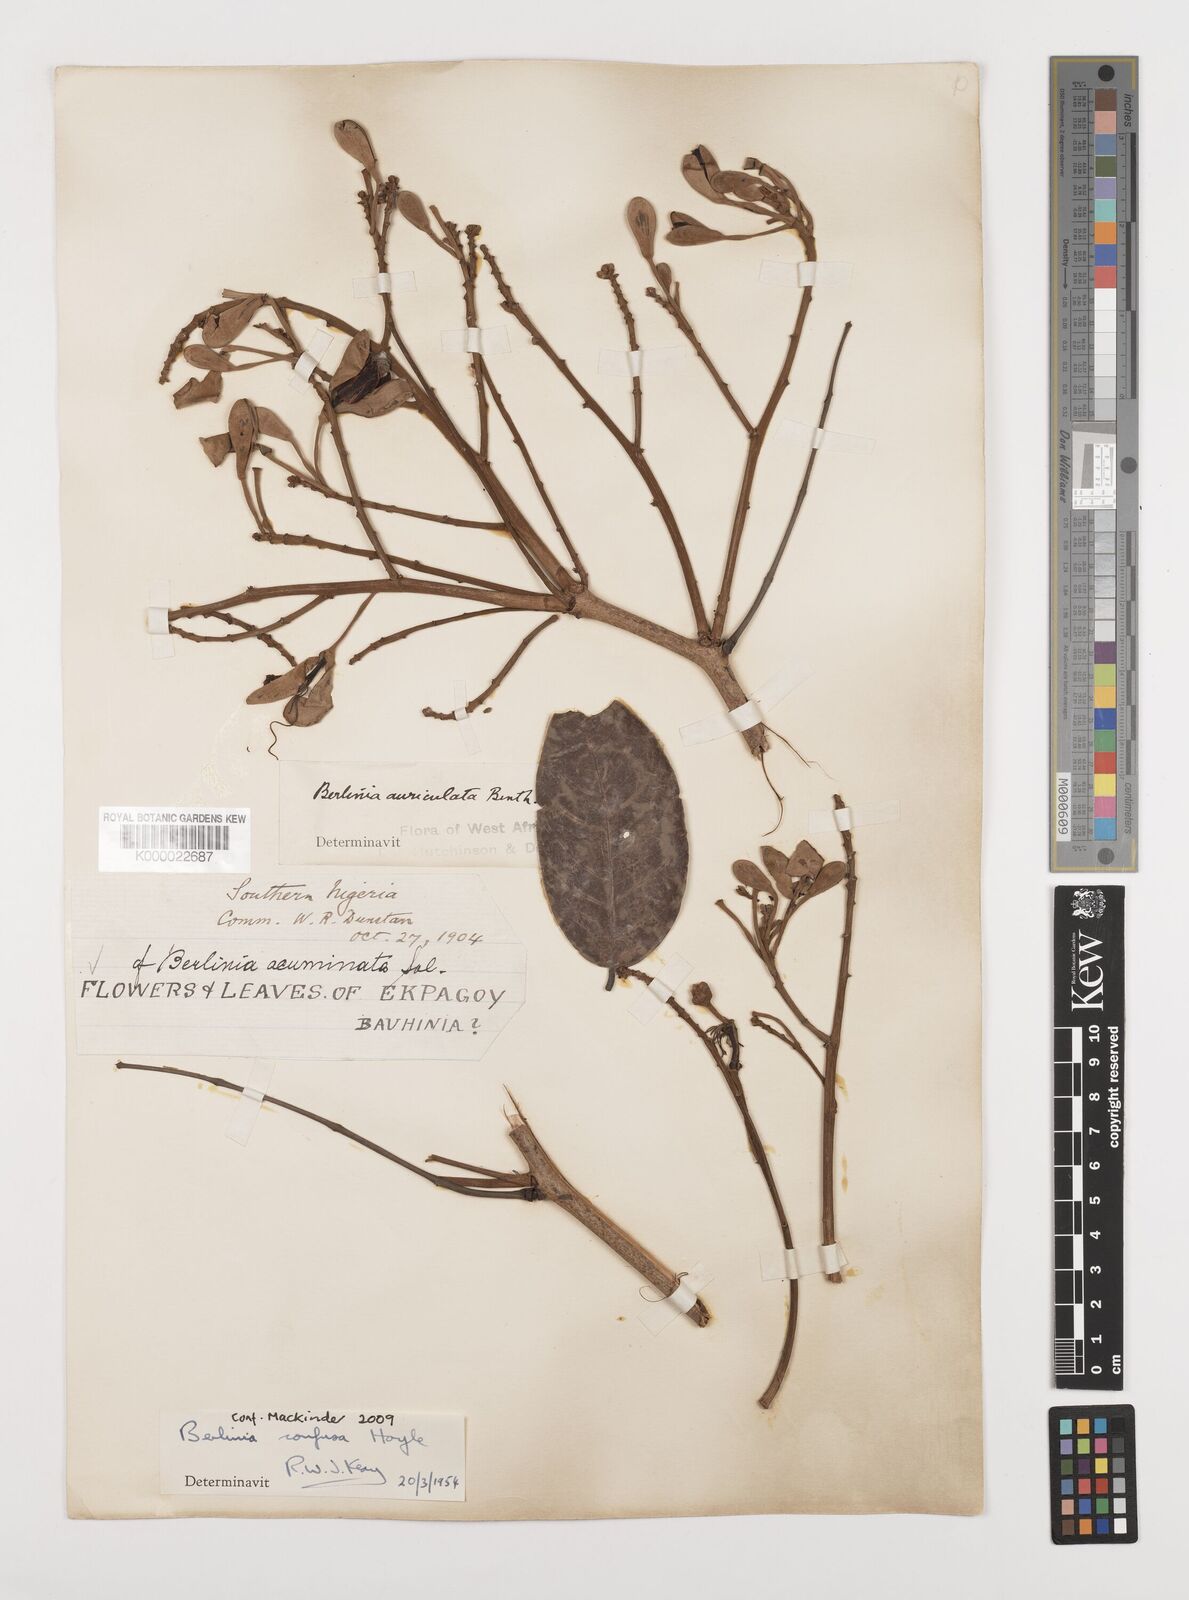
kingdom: Plantae
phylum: Tracheophyta
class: Magnoliopsida
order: Fabales
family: Fabaceae
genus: Berlinia
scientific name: Berlinia confusa
